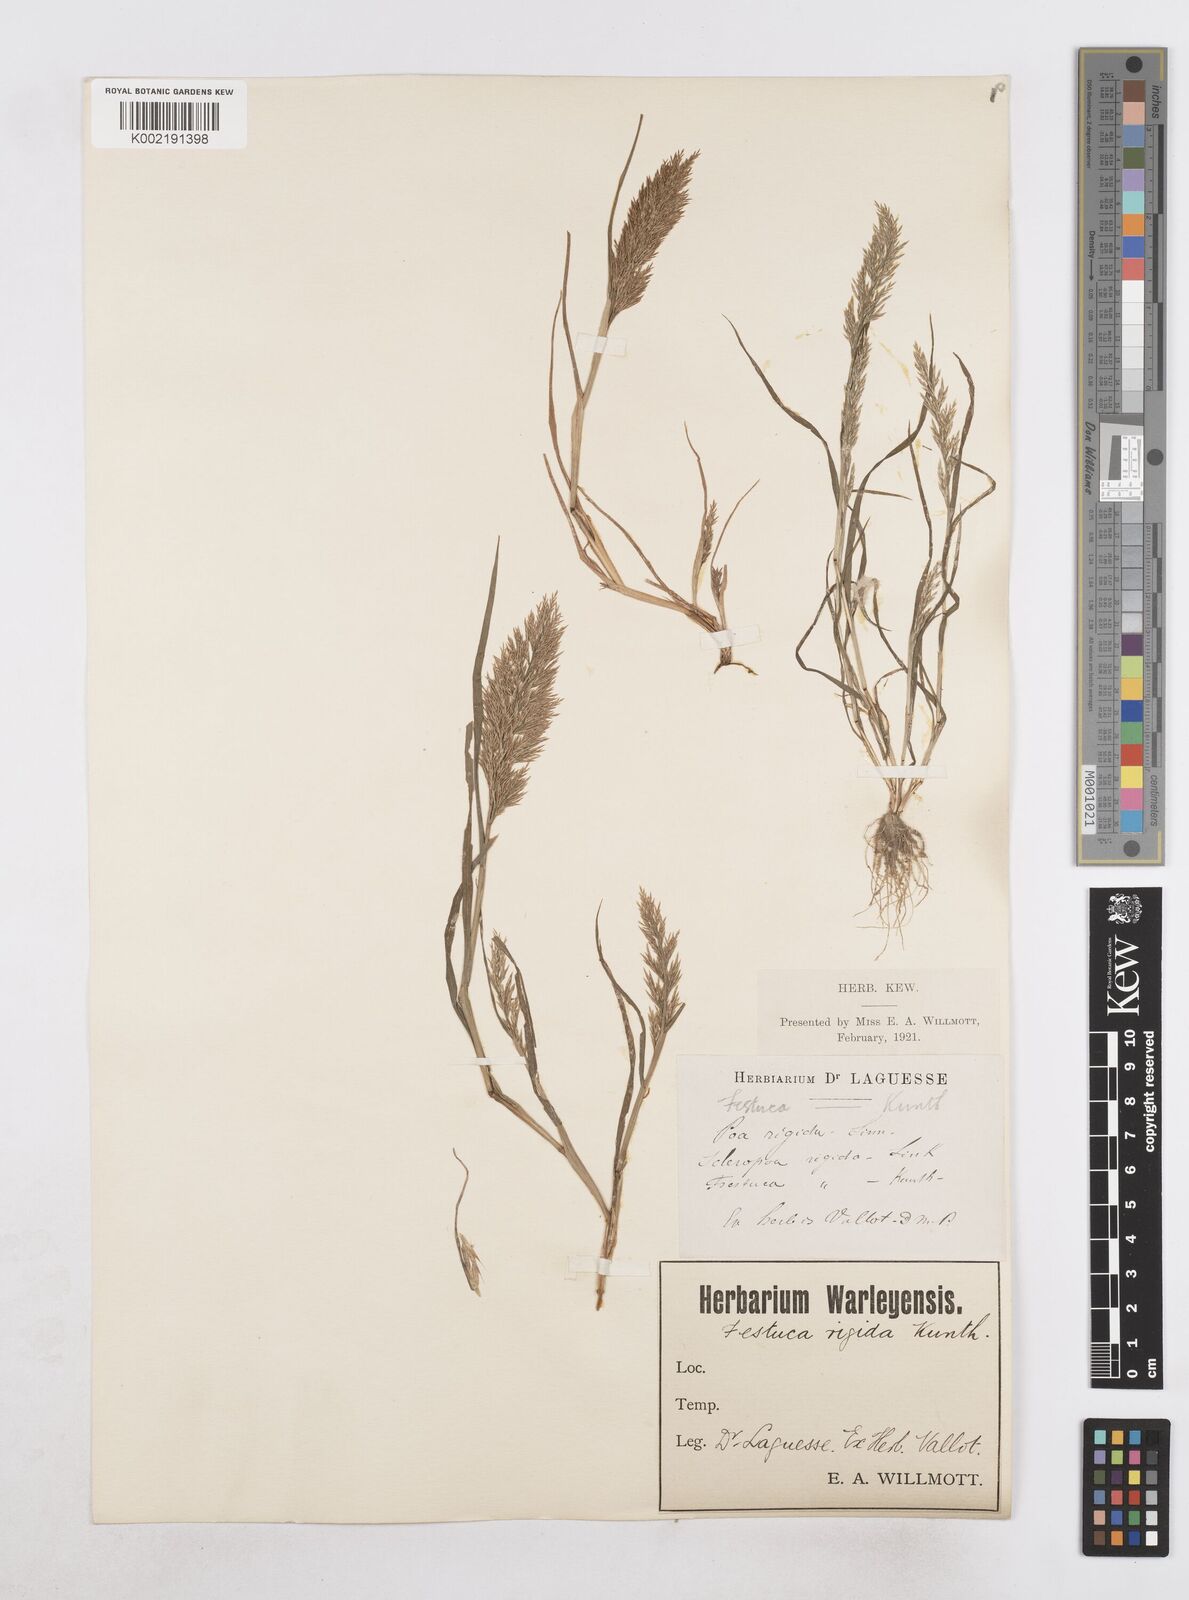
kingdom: Plantae
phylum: Tracheophyta
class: Liliopsida
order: Poales
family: Poaceae
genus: Catapodium
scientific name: Catapodium rigidum
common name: Fern-grass
